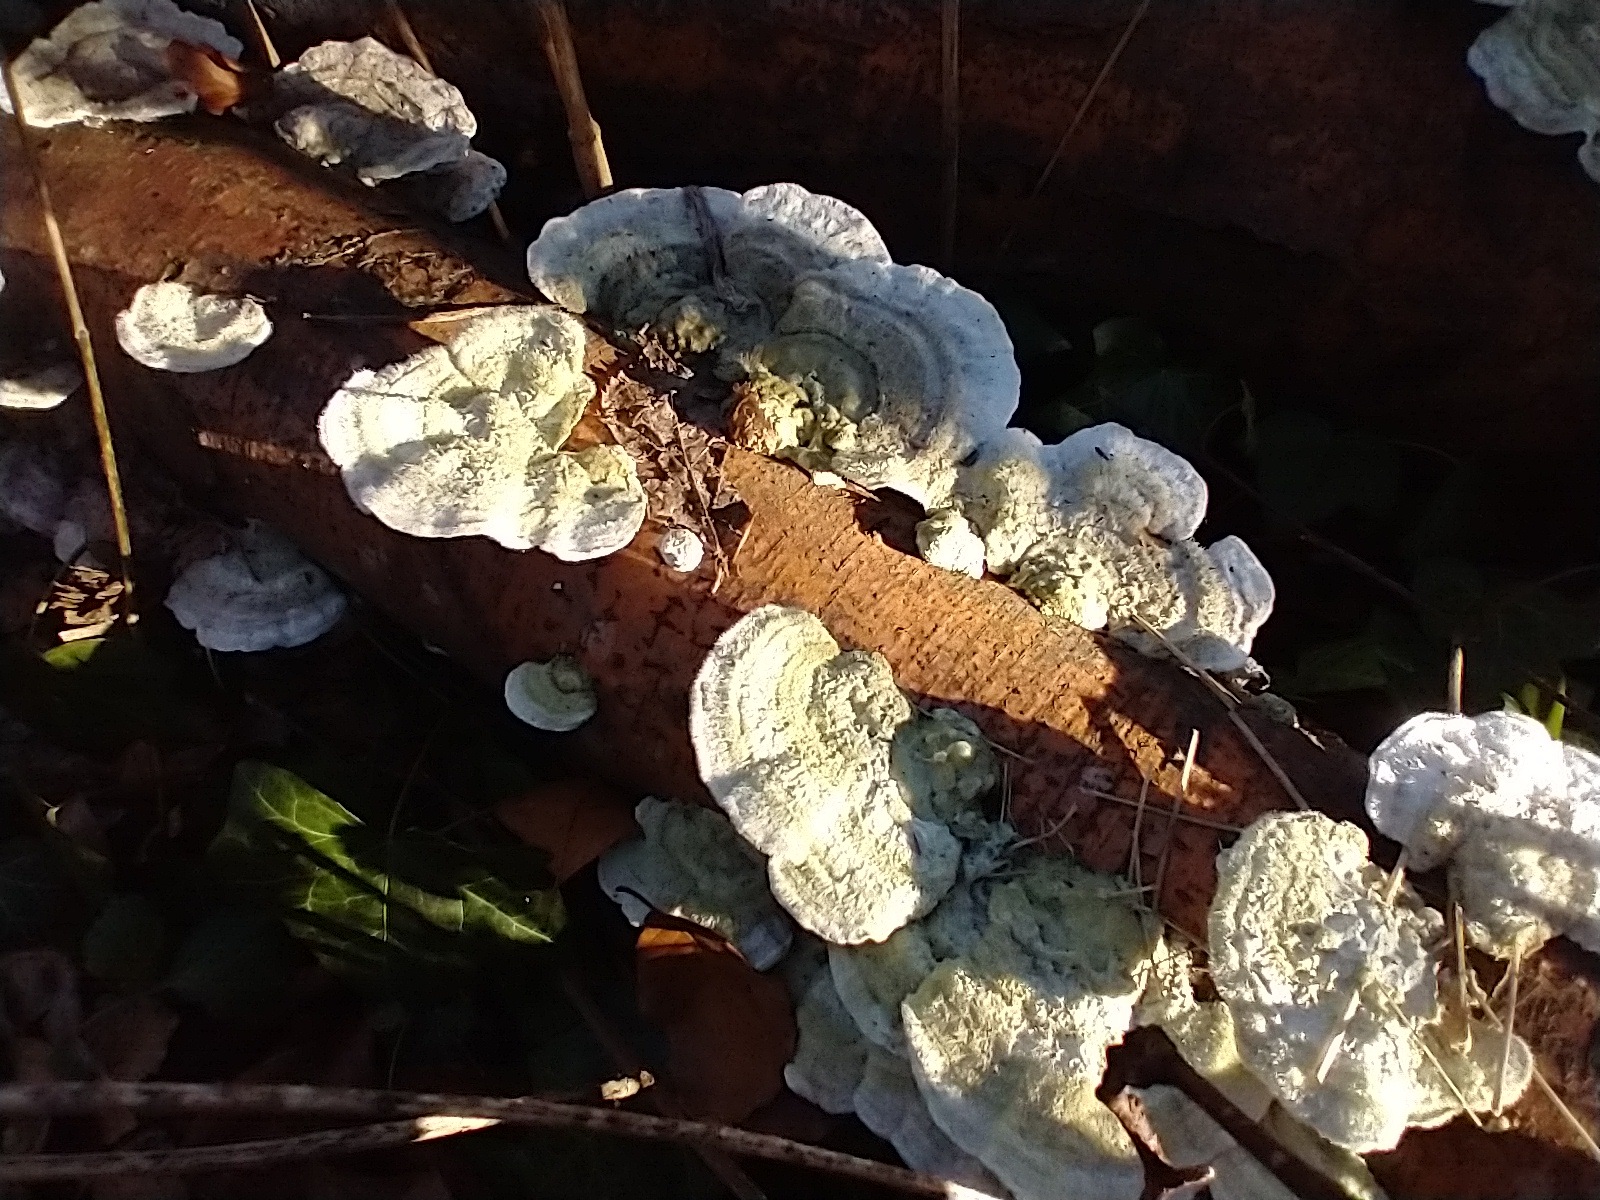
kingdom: Fungi
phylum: Basidiomycota
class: Agaricomycetes
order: Polyporales
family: Polyporaceae
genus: Trametes
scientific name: Trametes hirsuta
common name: håret læderporesvamp
